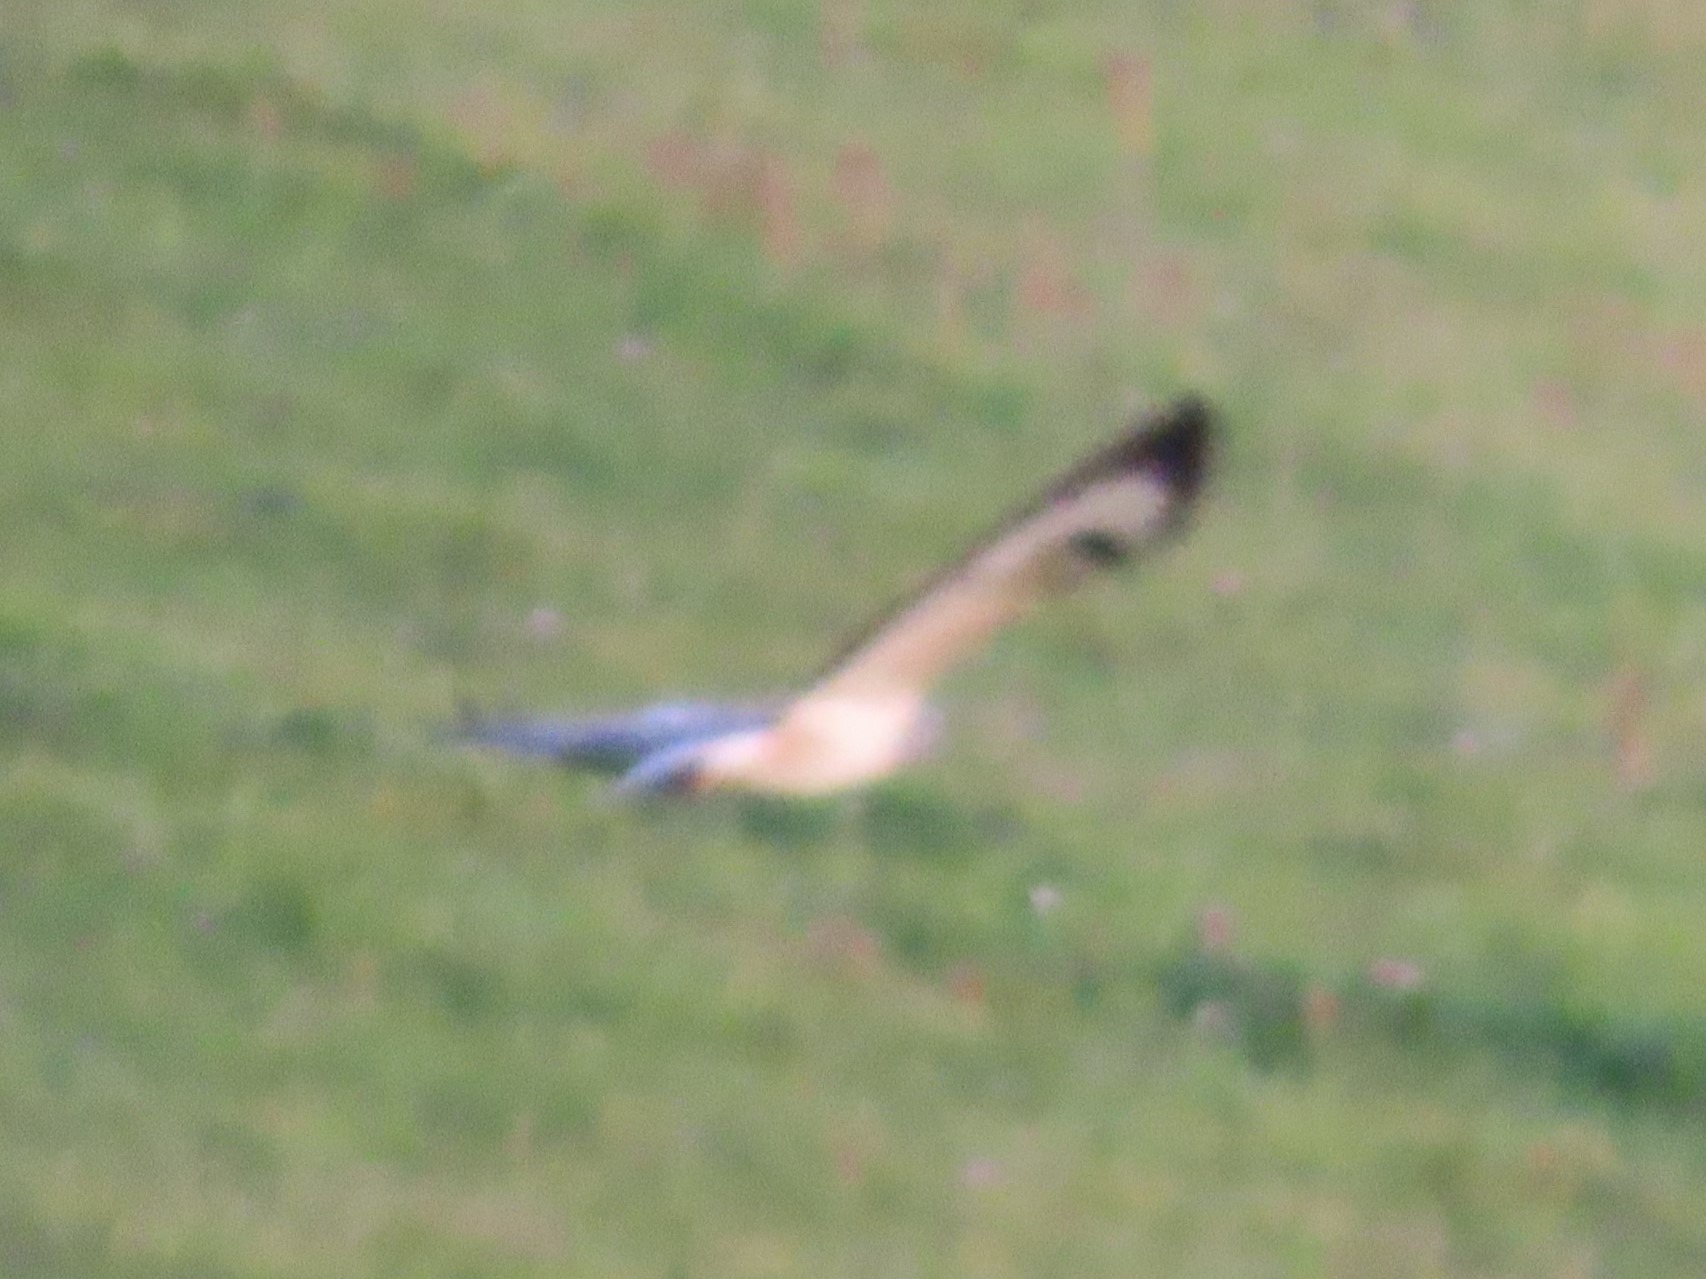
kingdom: Animalia
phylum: Chordata
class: Aves
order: Accipitriformes
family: Accipitridae
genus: Buteo
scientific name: Buteo buteo
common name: Musvåge
